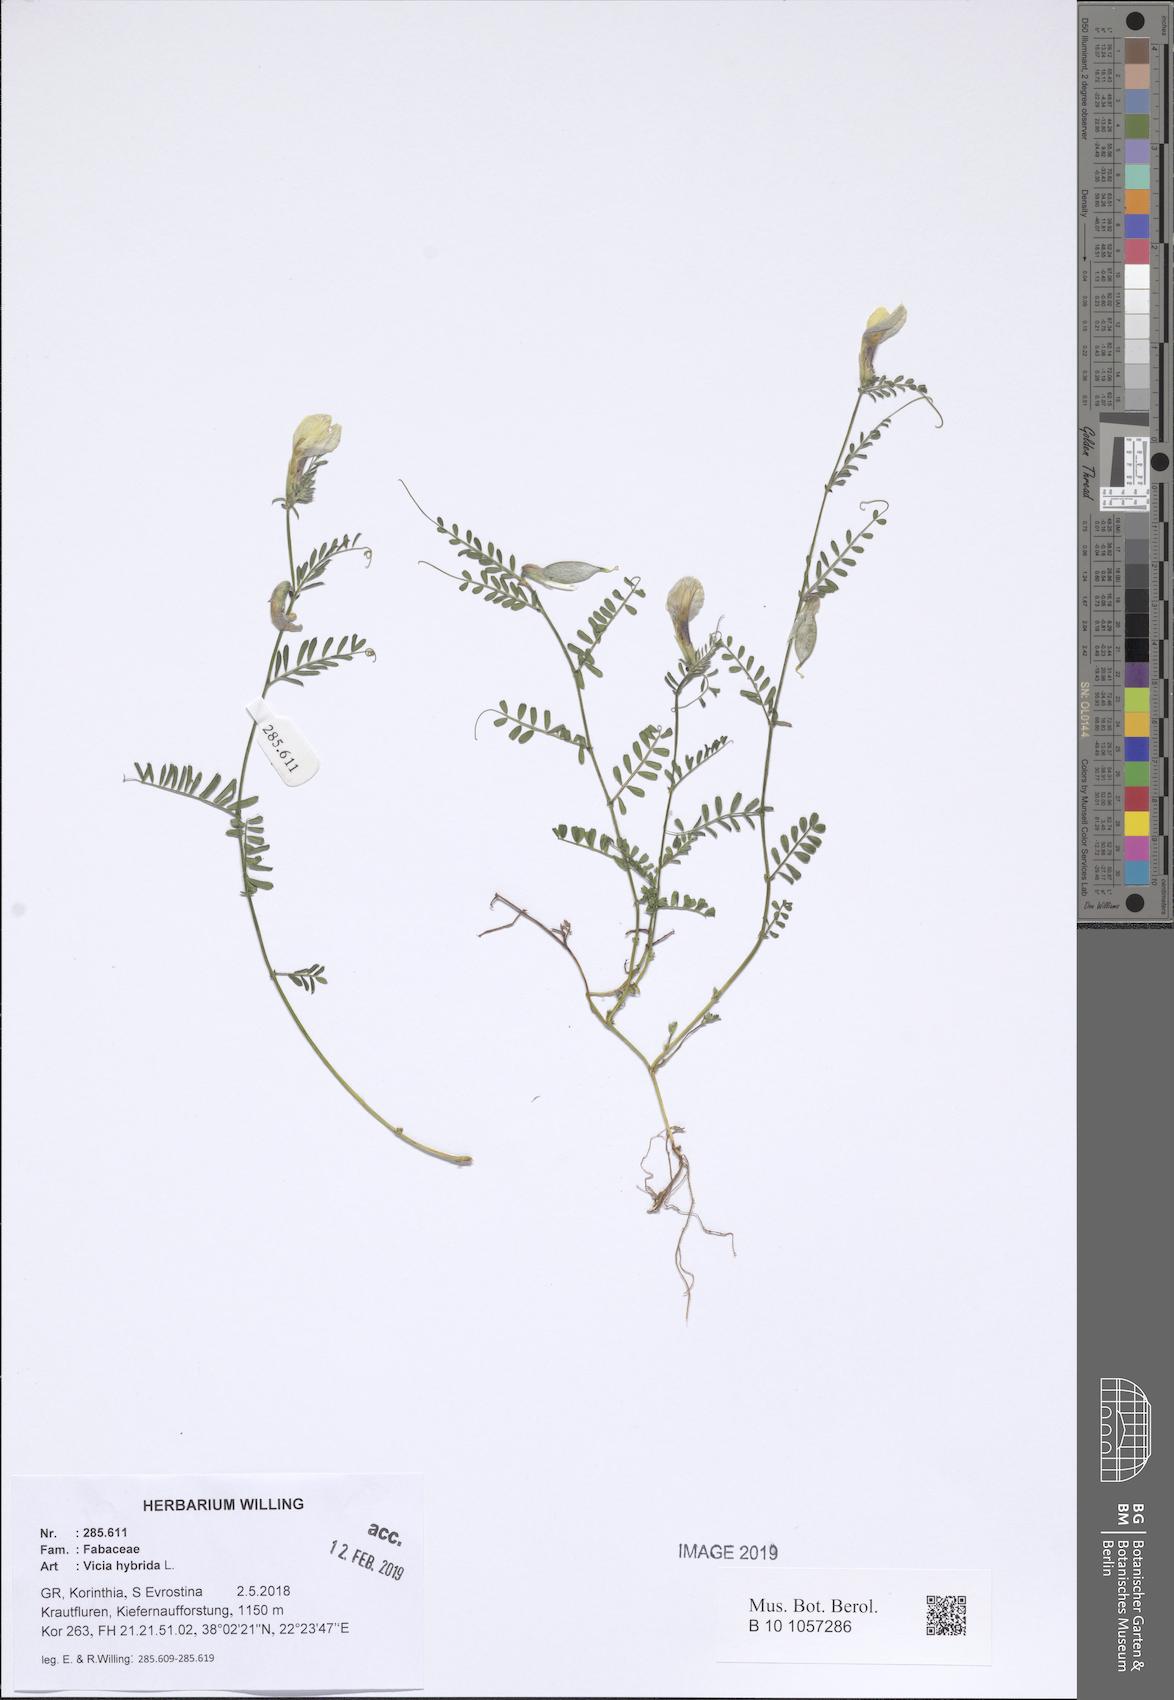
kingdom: Plantae
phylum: Tracheophyta
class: Magnoliopsida
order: Fabales
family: Fabaceae
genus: Vicia
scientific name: Vicia hybrida
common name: Hairy yellow vetch
